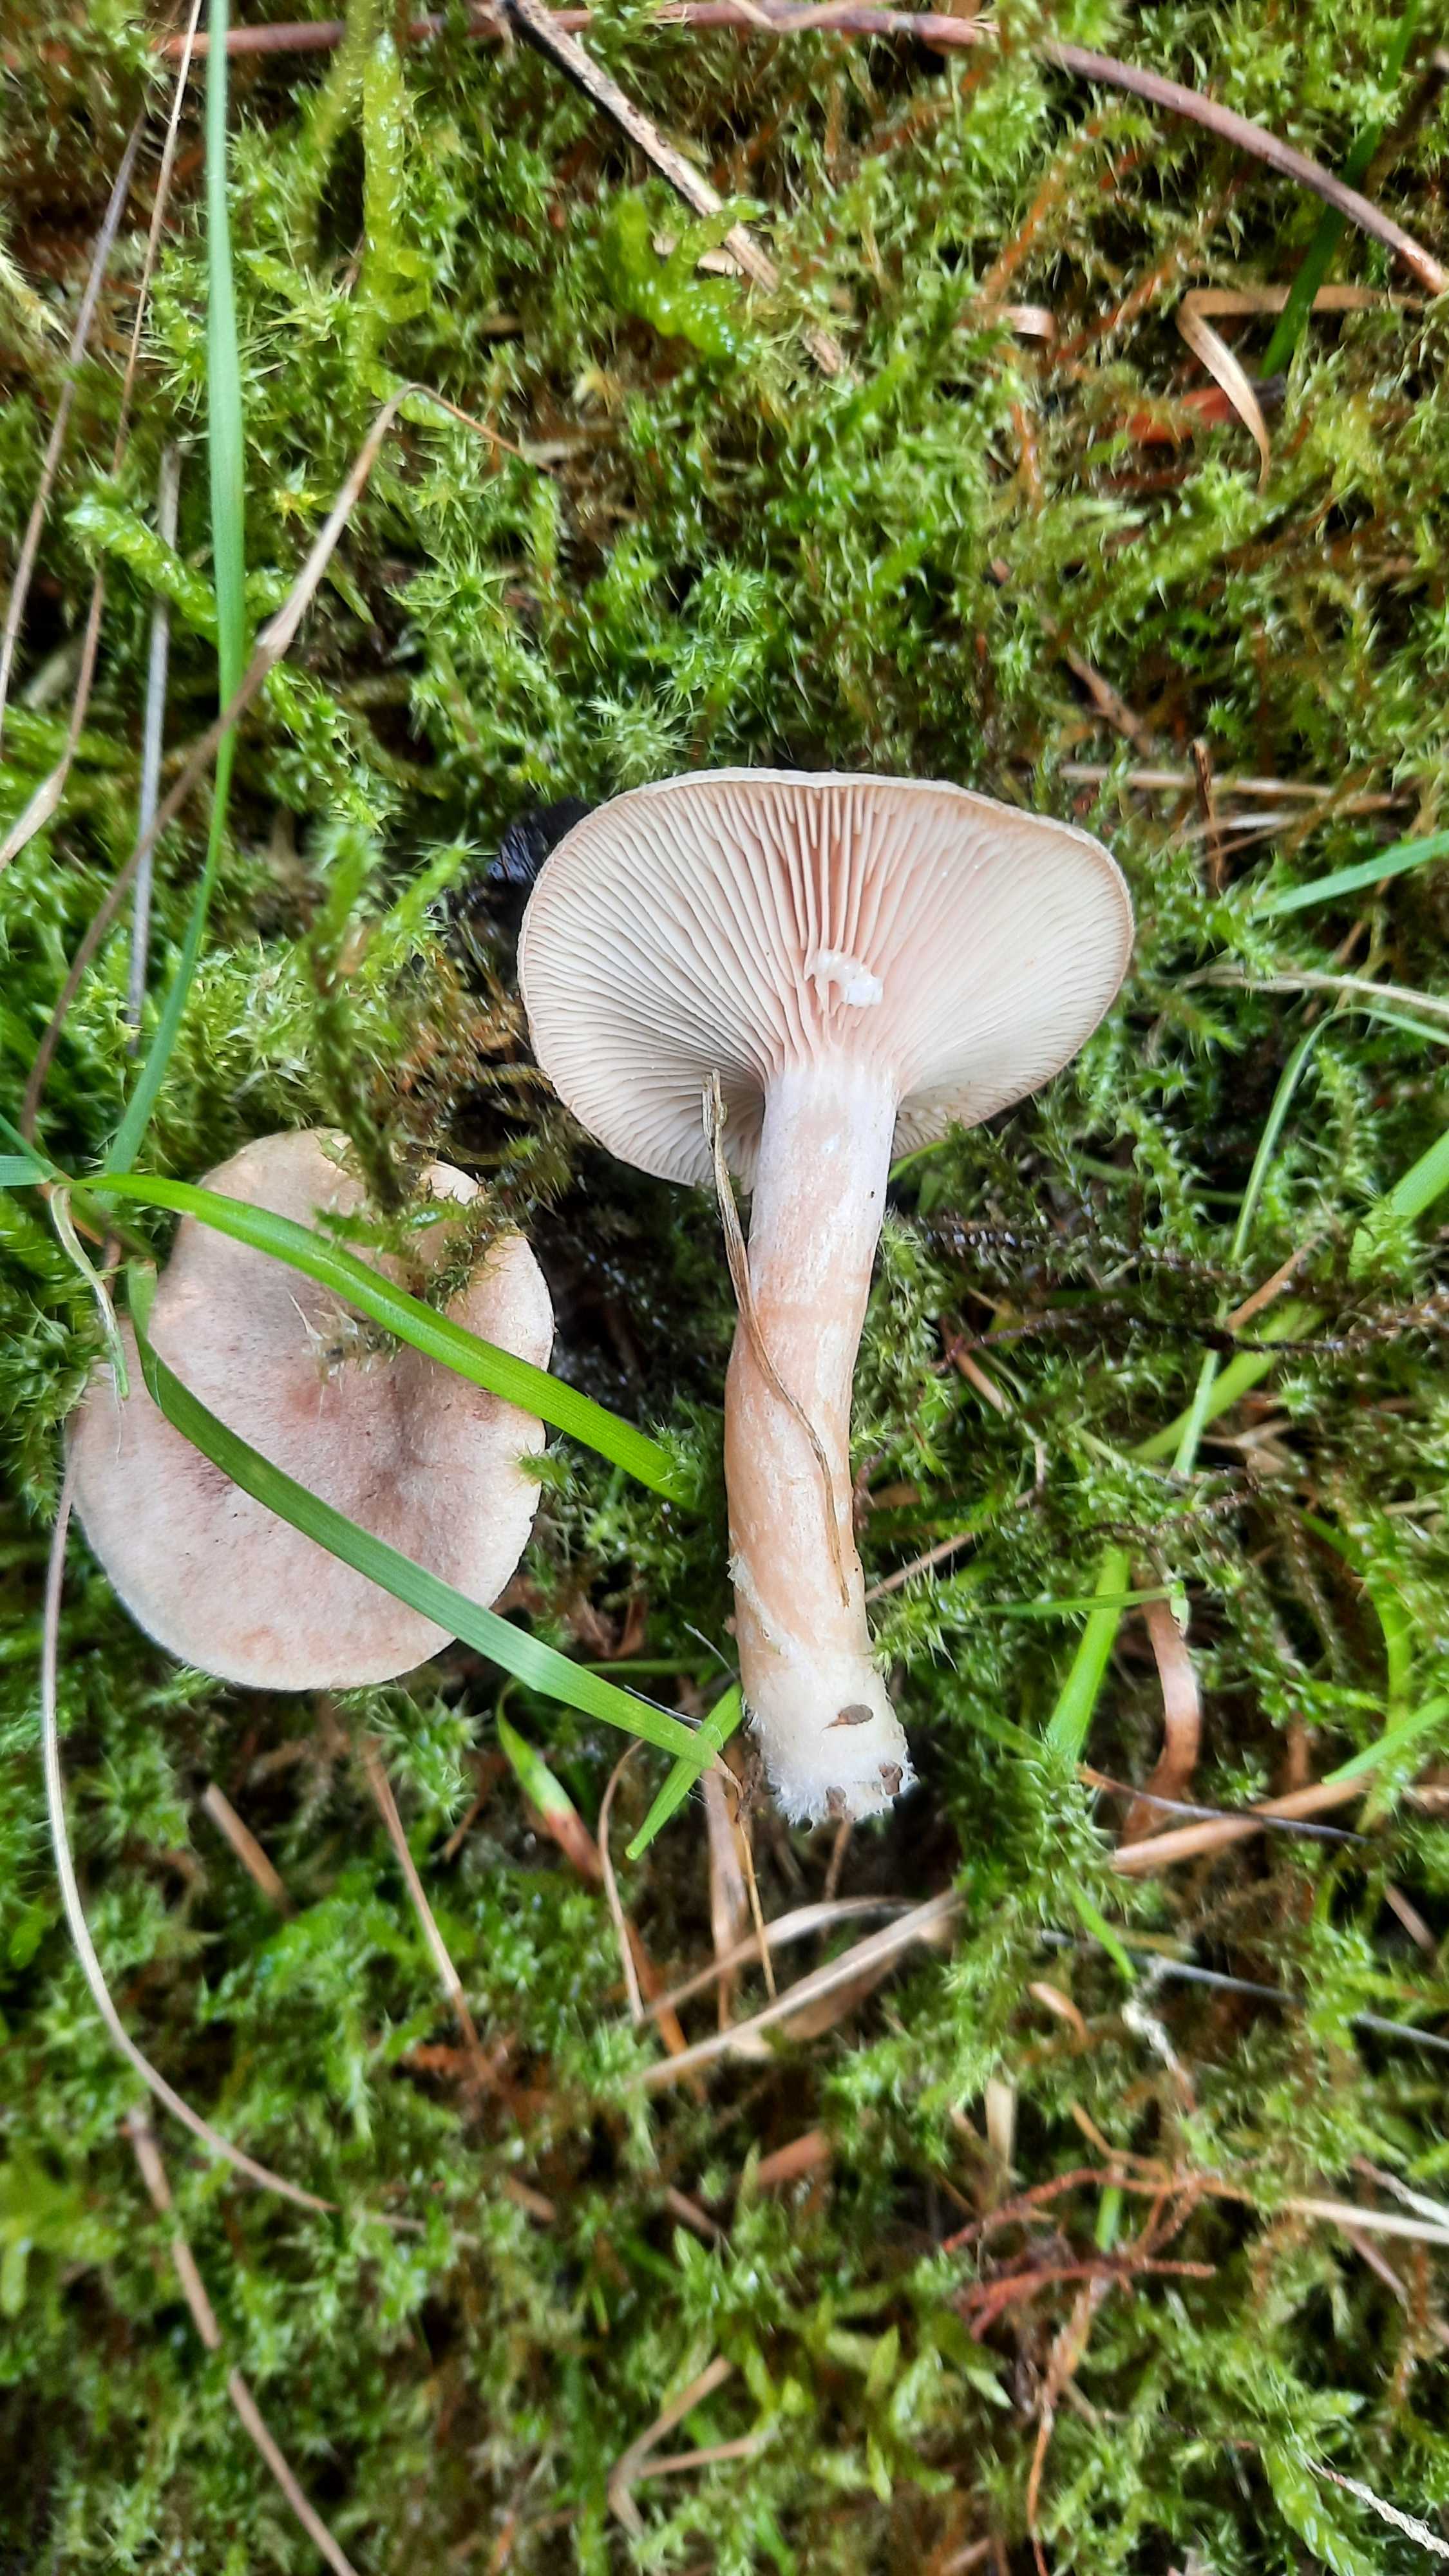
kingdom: Fungi
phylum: Basidiomycota
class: Agaricomycetes
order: Russulales
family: Russulaceae
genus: Lactarius
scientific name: Lactarius glyciosmus
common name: kokos-mælkehat
